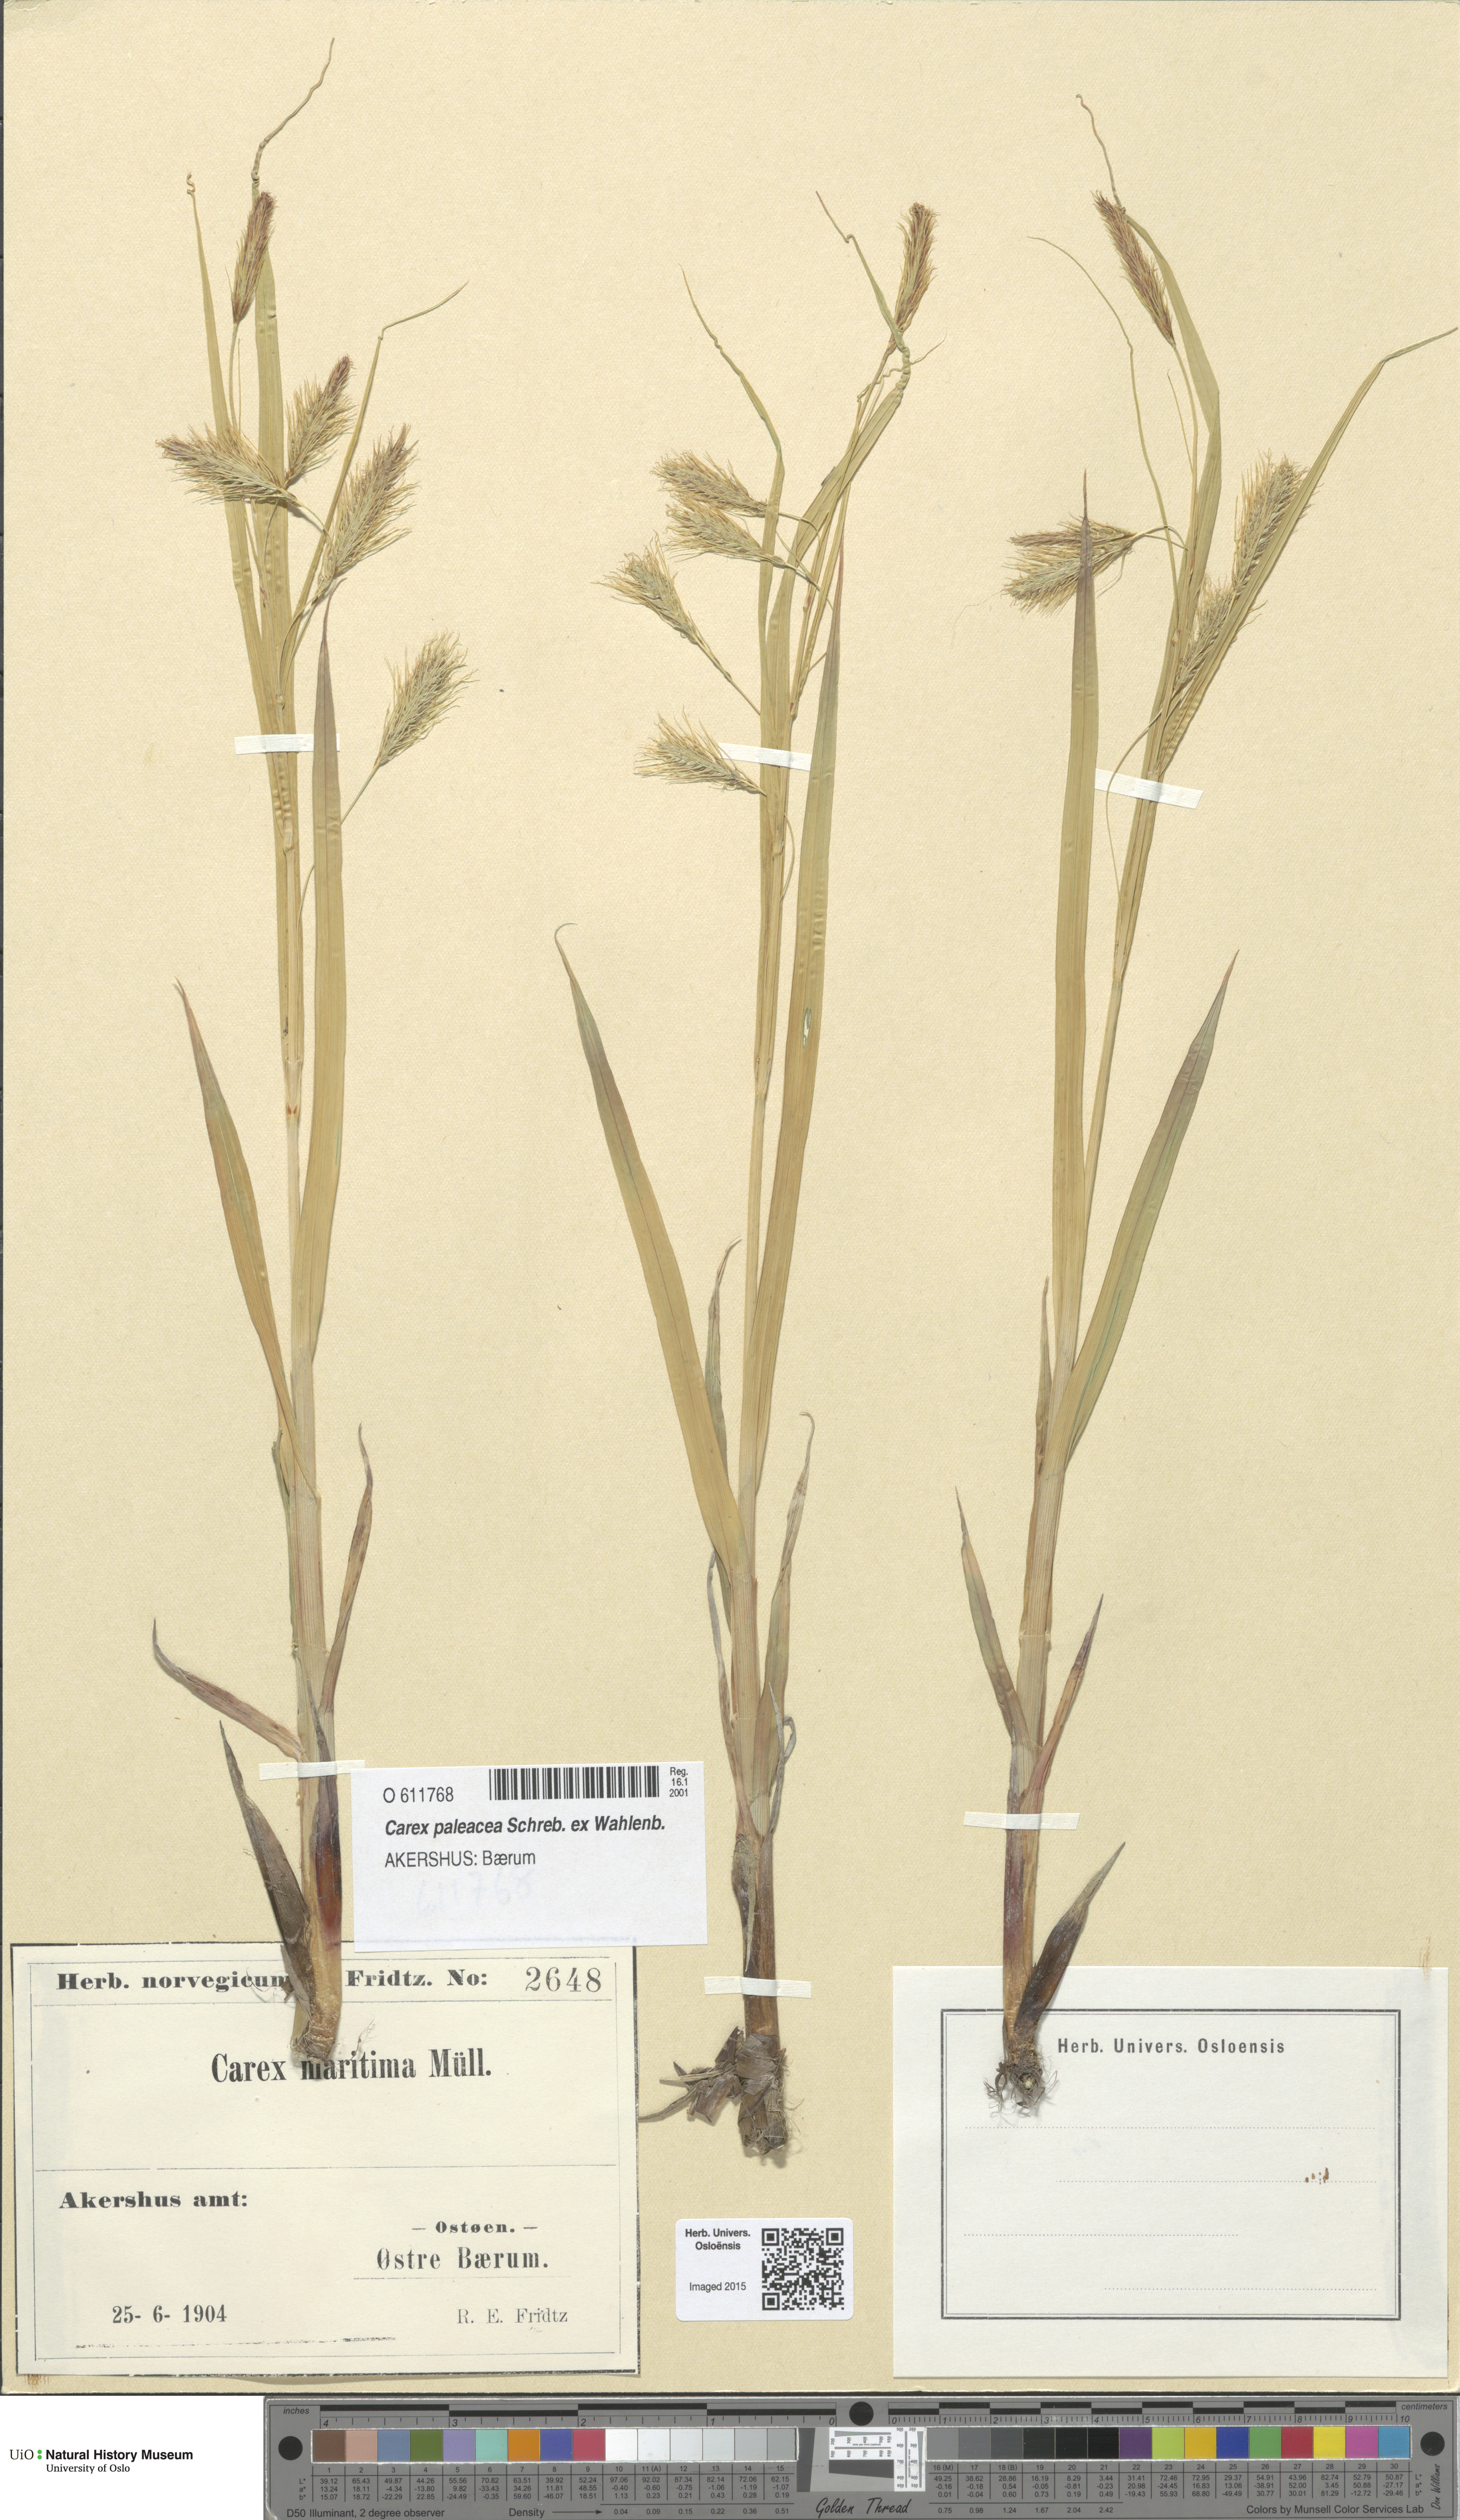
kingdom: Plantae
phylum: Tracheophyta
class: Liliopsida
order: Poales
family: Cyperaceae
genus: Carex
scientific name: Carex paleacea
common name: Chaffy sedge
